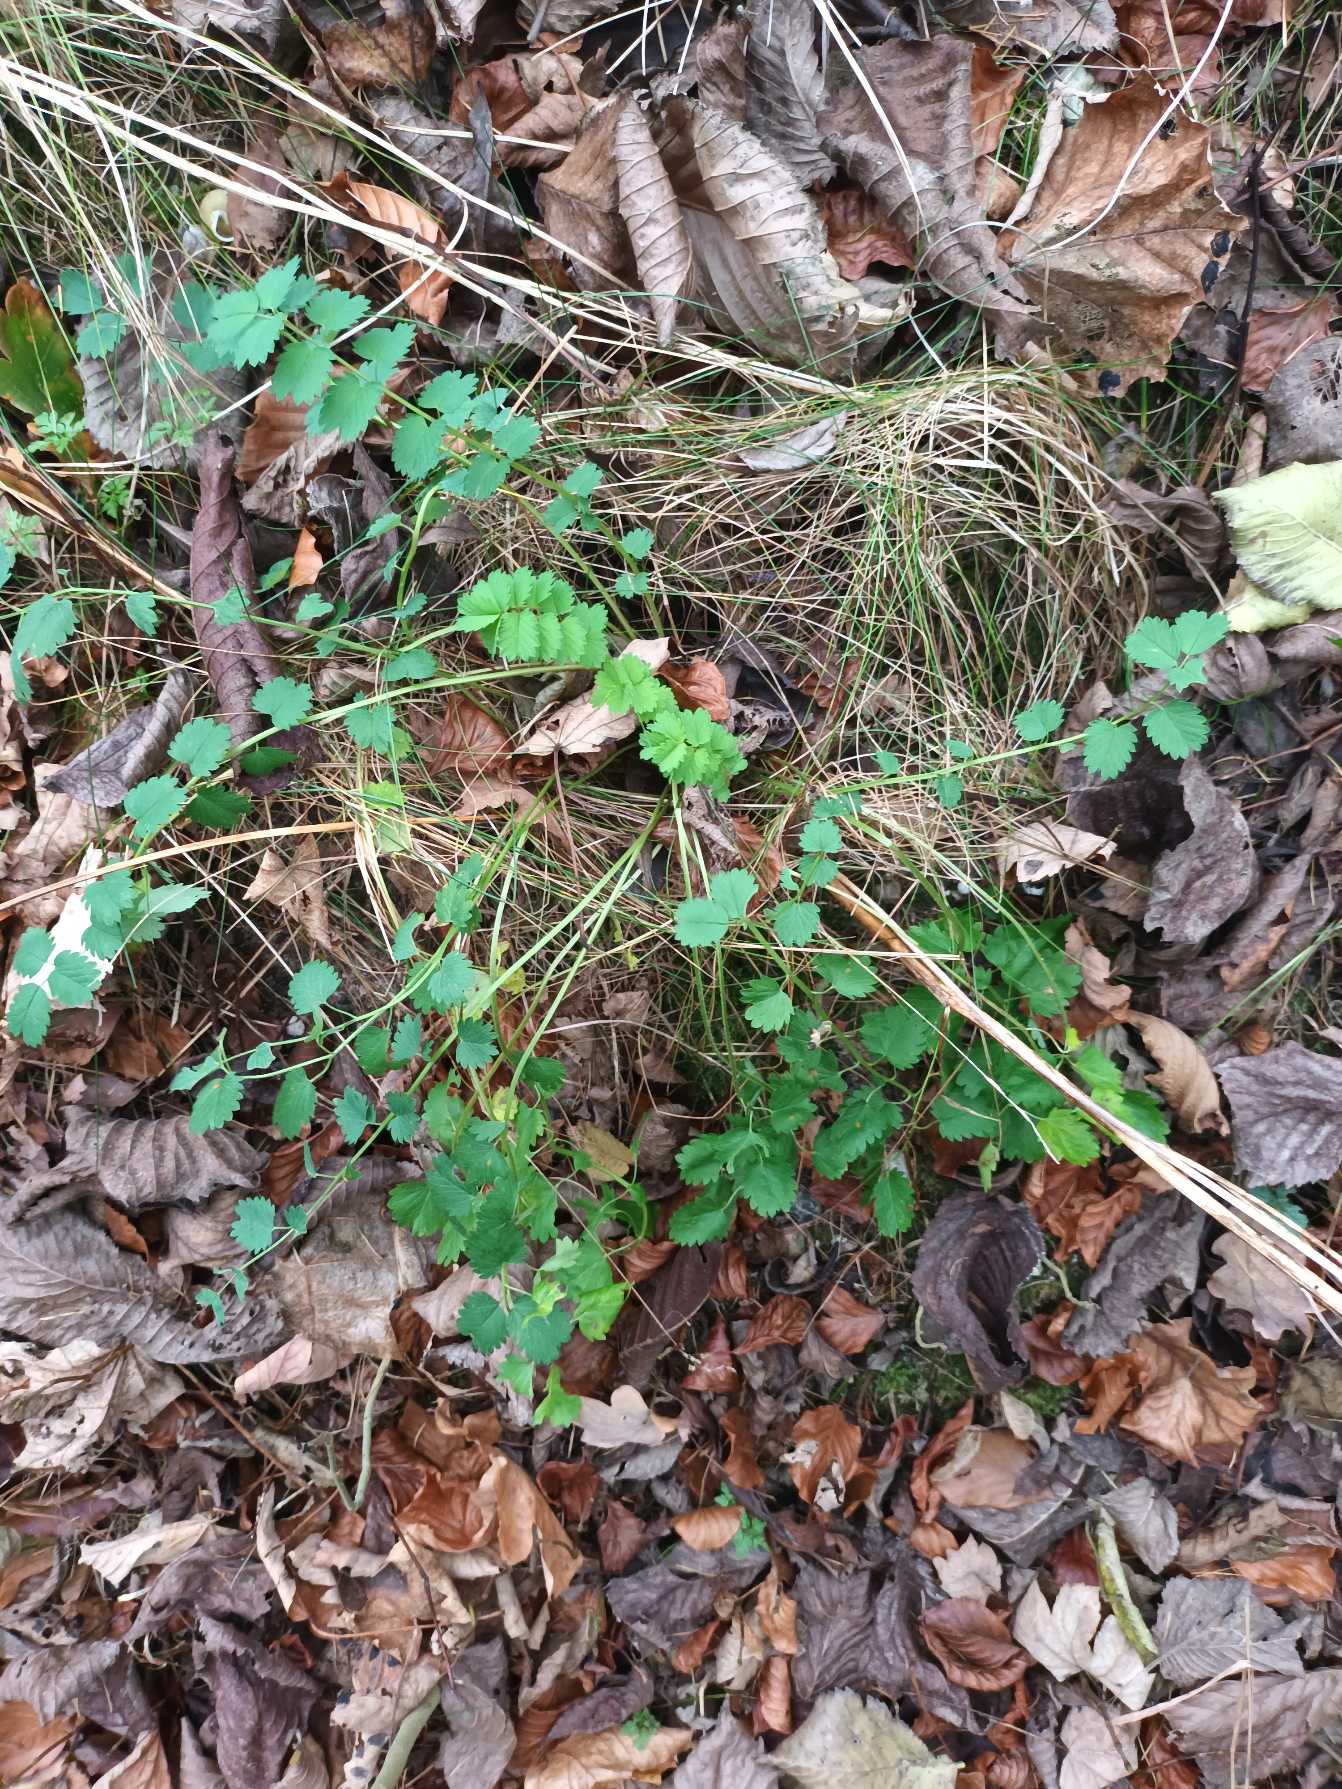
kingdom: Plantae
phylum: Tracheophyta
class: Magnoliopsida
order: Rosales
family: Rosaceae
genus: Poterium
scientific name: Poterium sanguisorba
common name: Bibernelle
